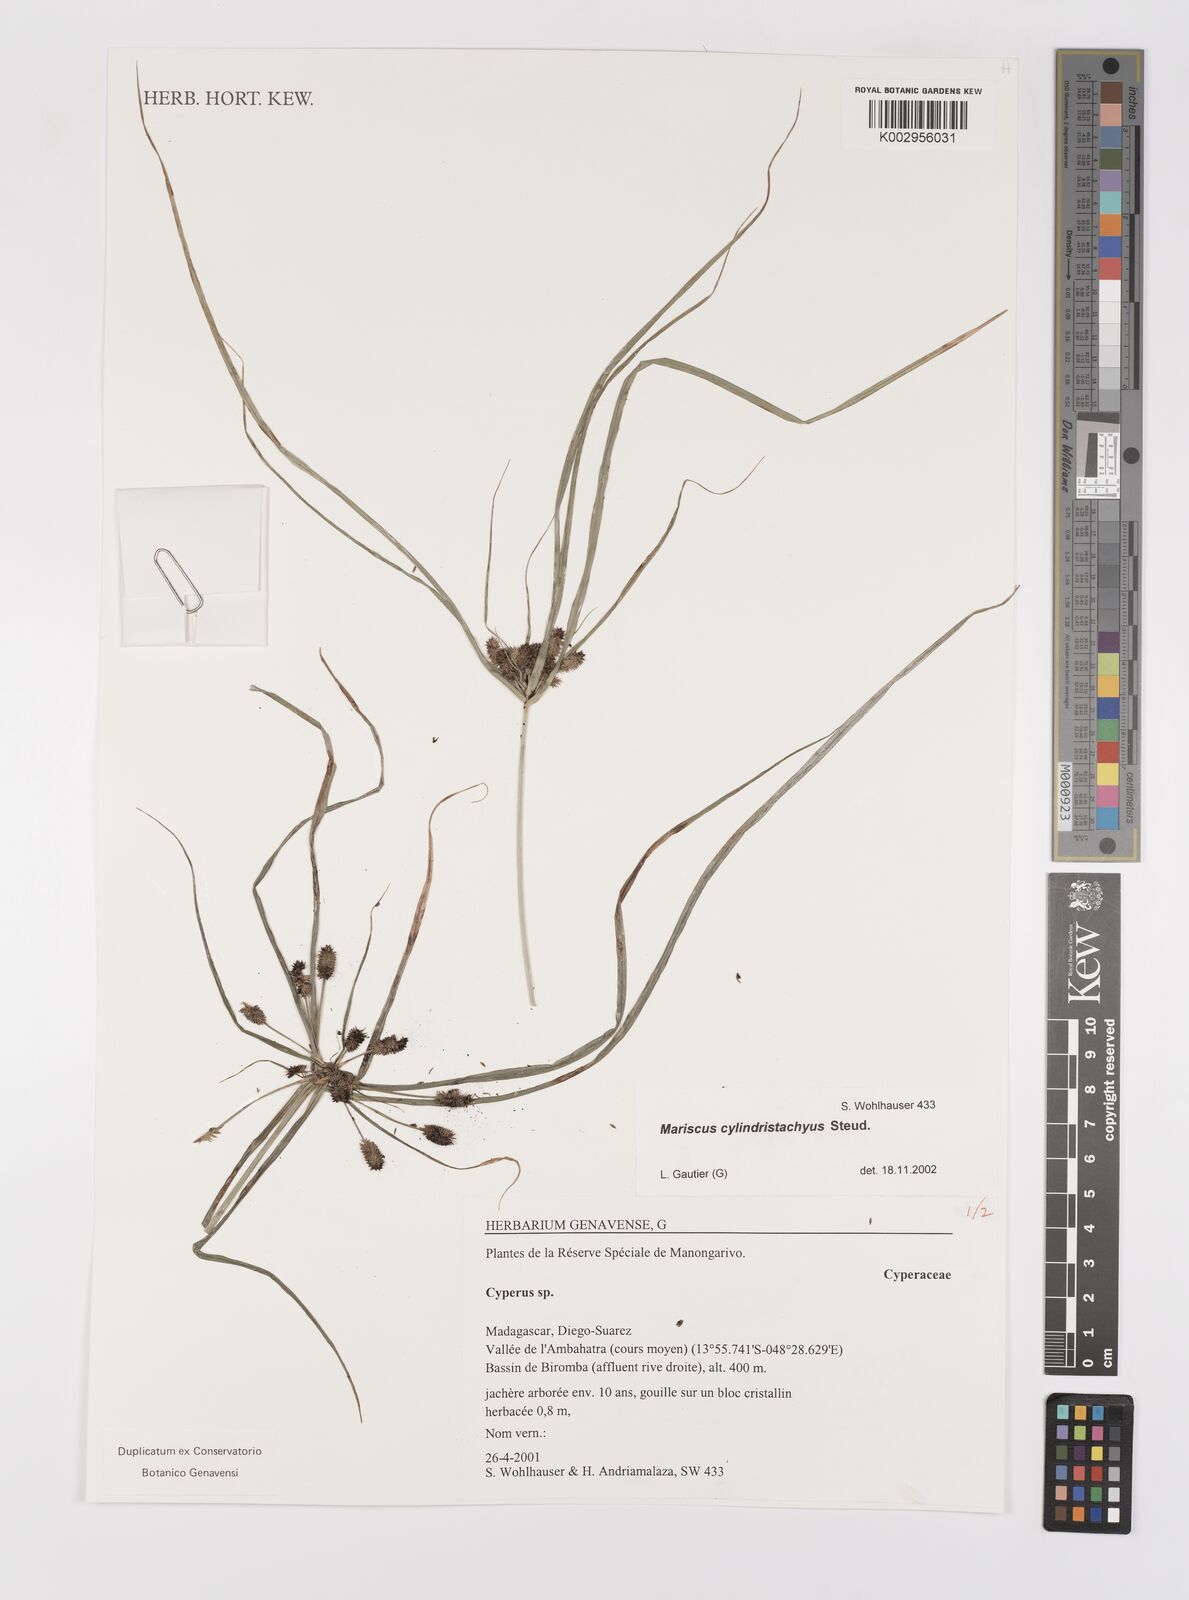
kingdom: Plantae
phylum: Tracheophyta
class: Liliopsida
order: Poales
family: Cyperaceae
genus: Cyperus
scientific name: Cyperus cyperoides
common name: Pacific island flat sedge
